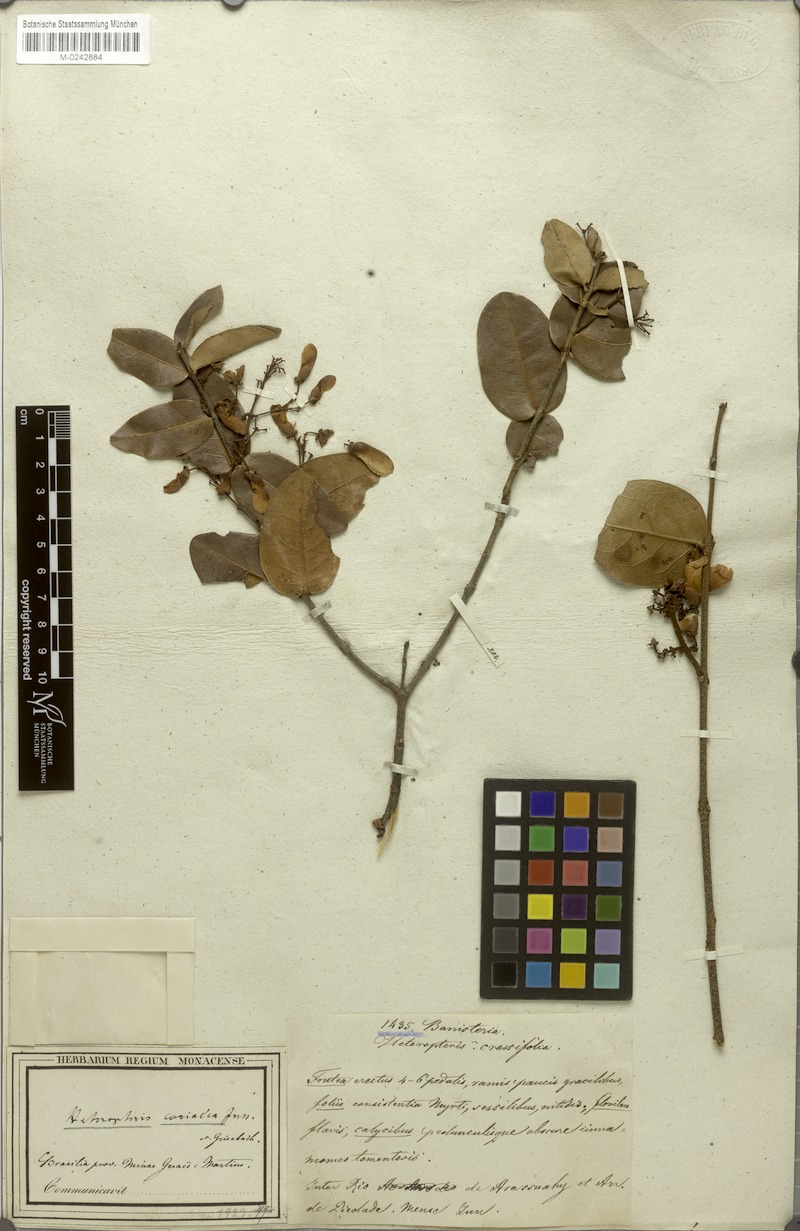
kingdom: Plantae
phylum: Tracheophyta
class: Magnoliopsida
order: Malpighiales
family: Malpighiaceae
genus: Heteropterys
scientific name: Heteropterys coriacea
